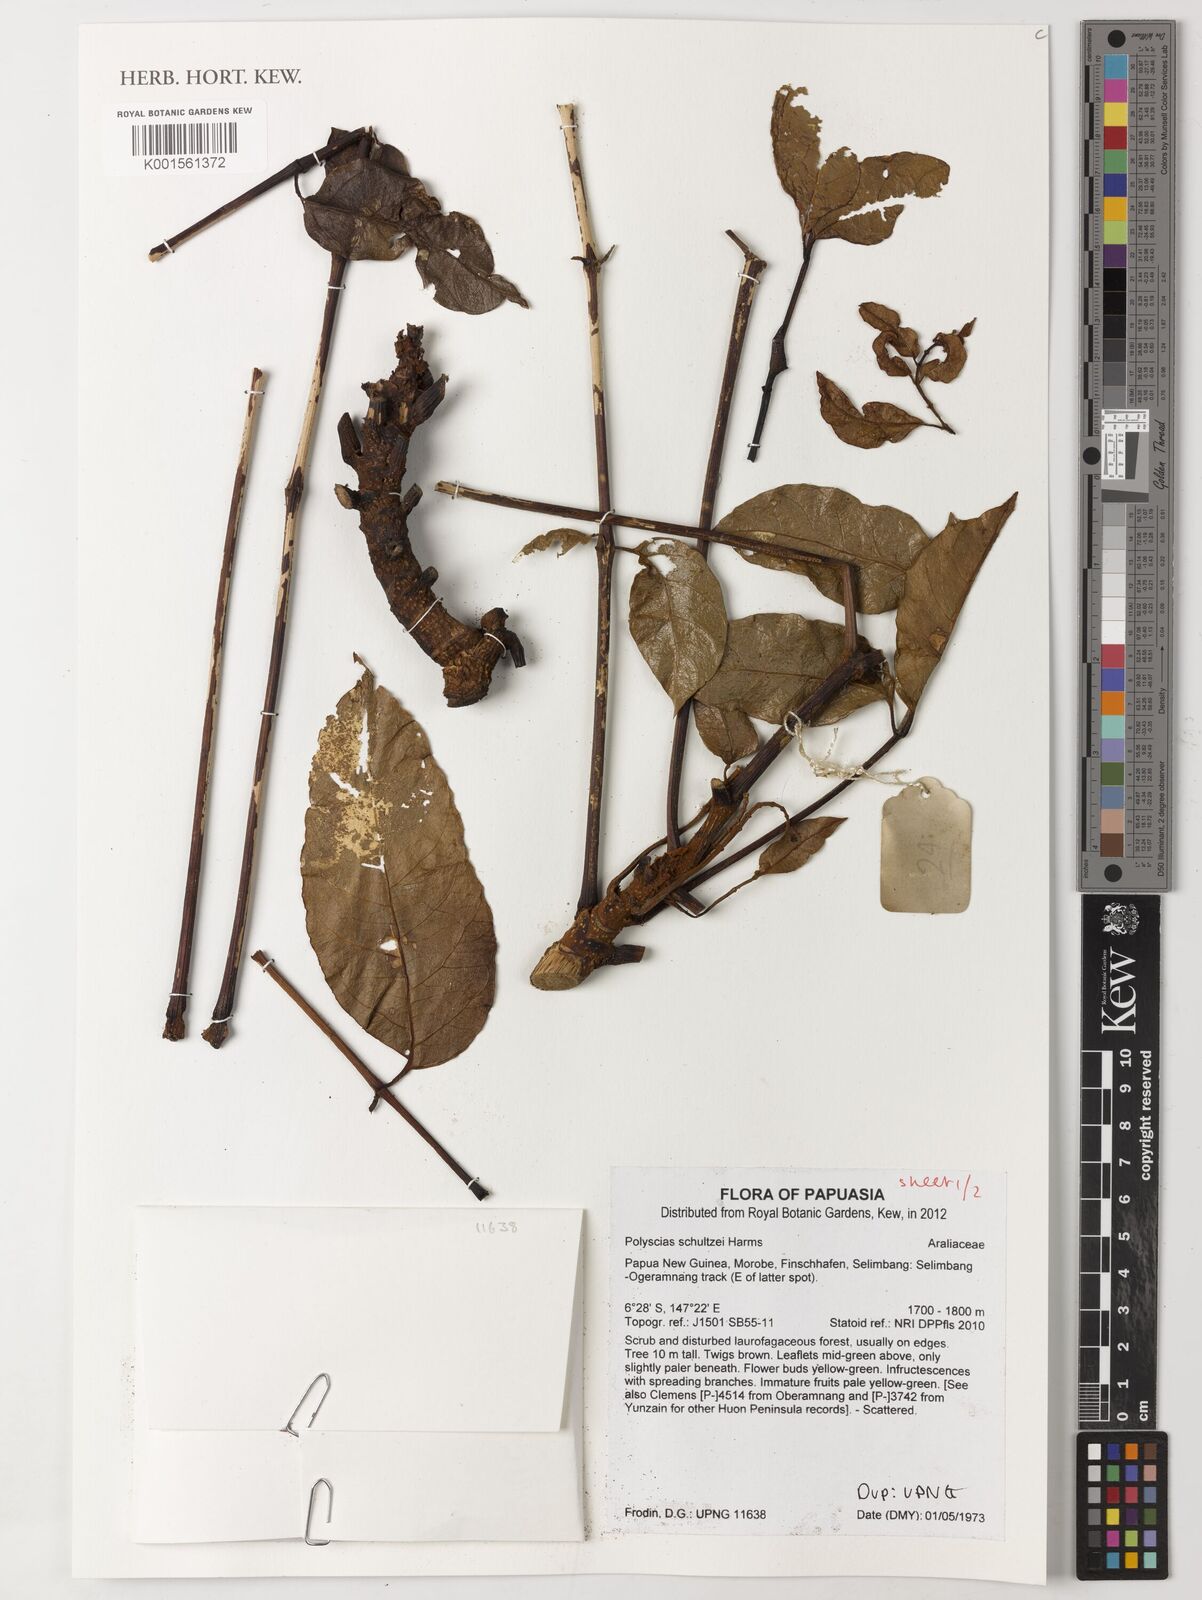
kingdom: Plantae
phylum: Tracheophyta
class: Magnoliopsida
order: Apiales
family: Araliaceae
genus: Polyscias
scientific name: Polyscias schultzei
